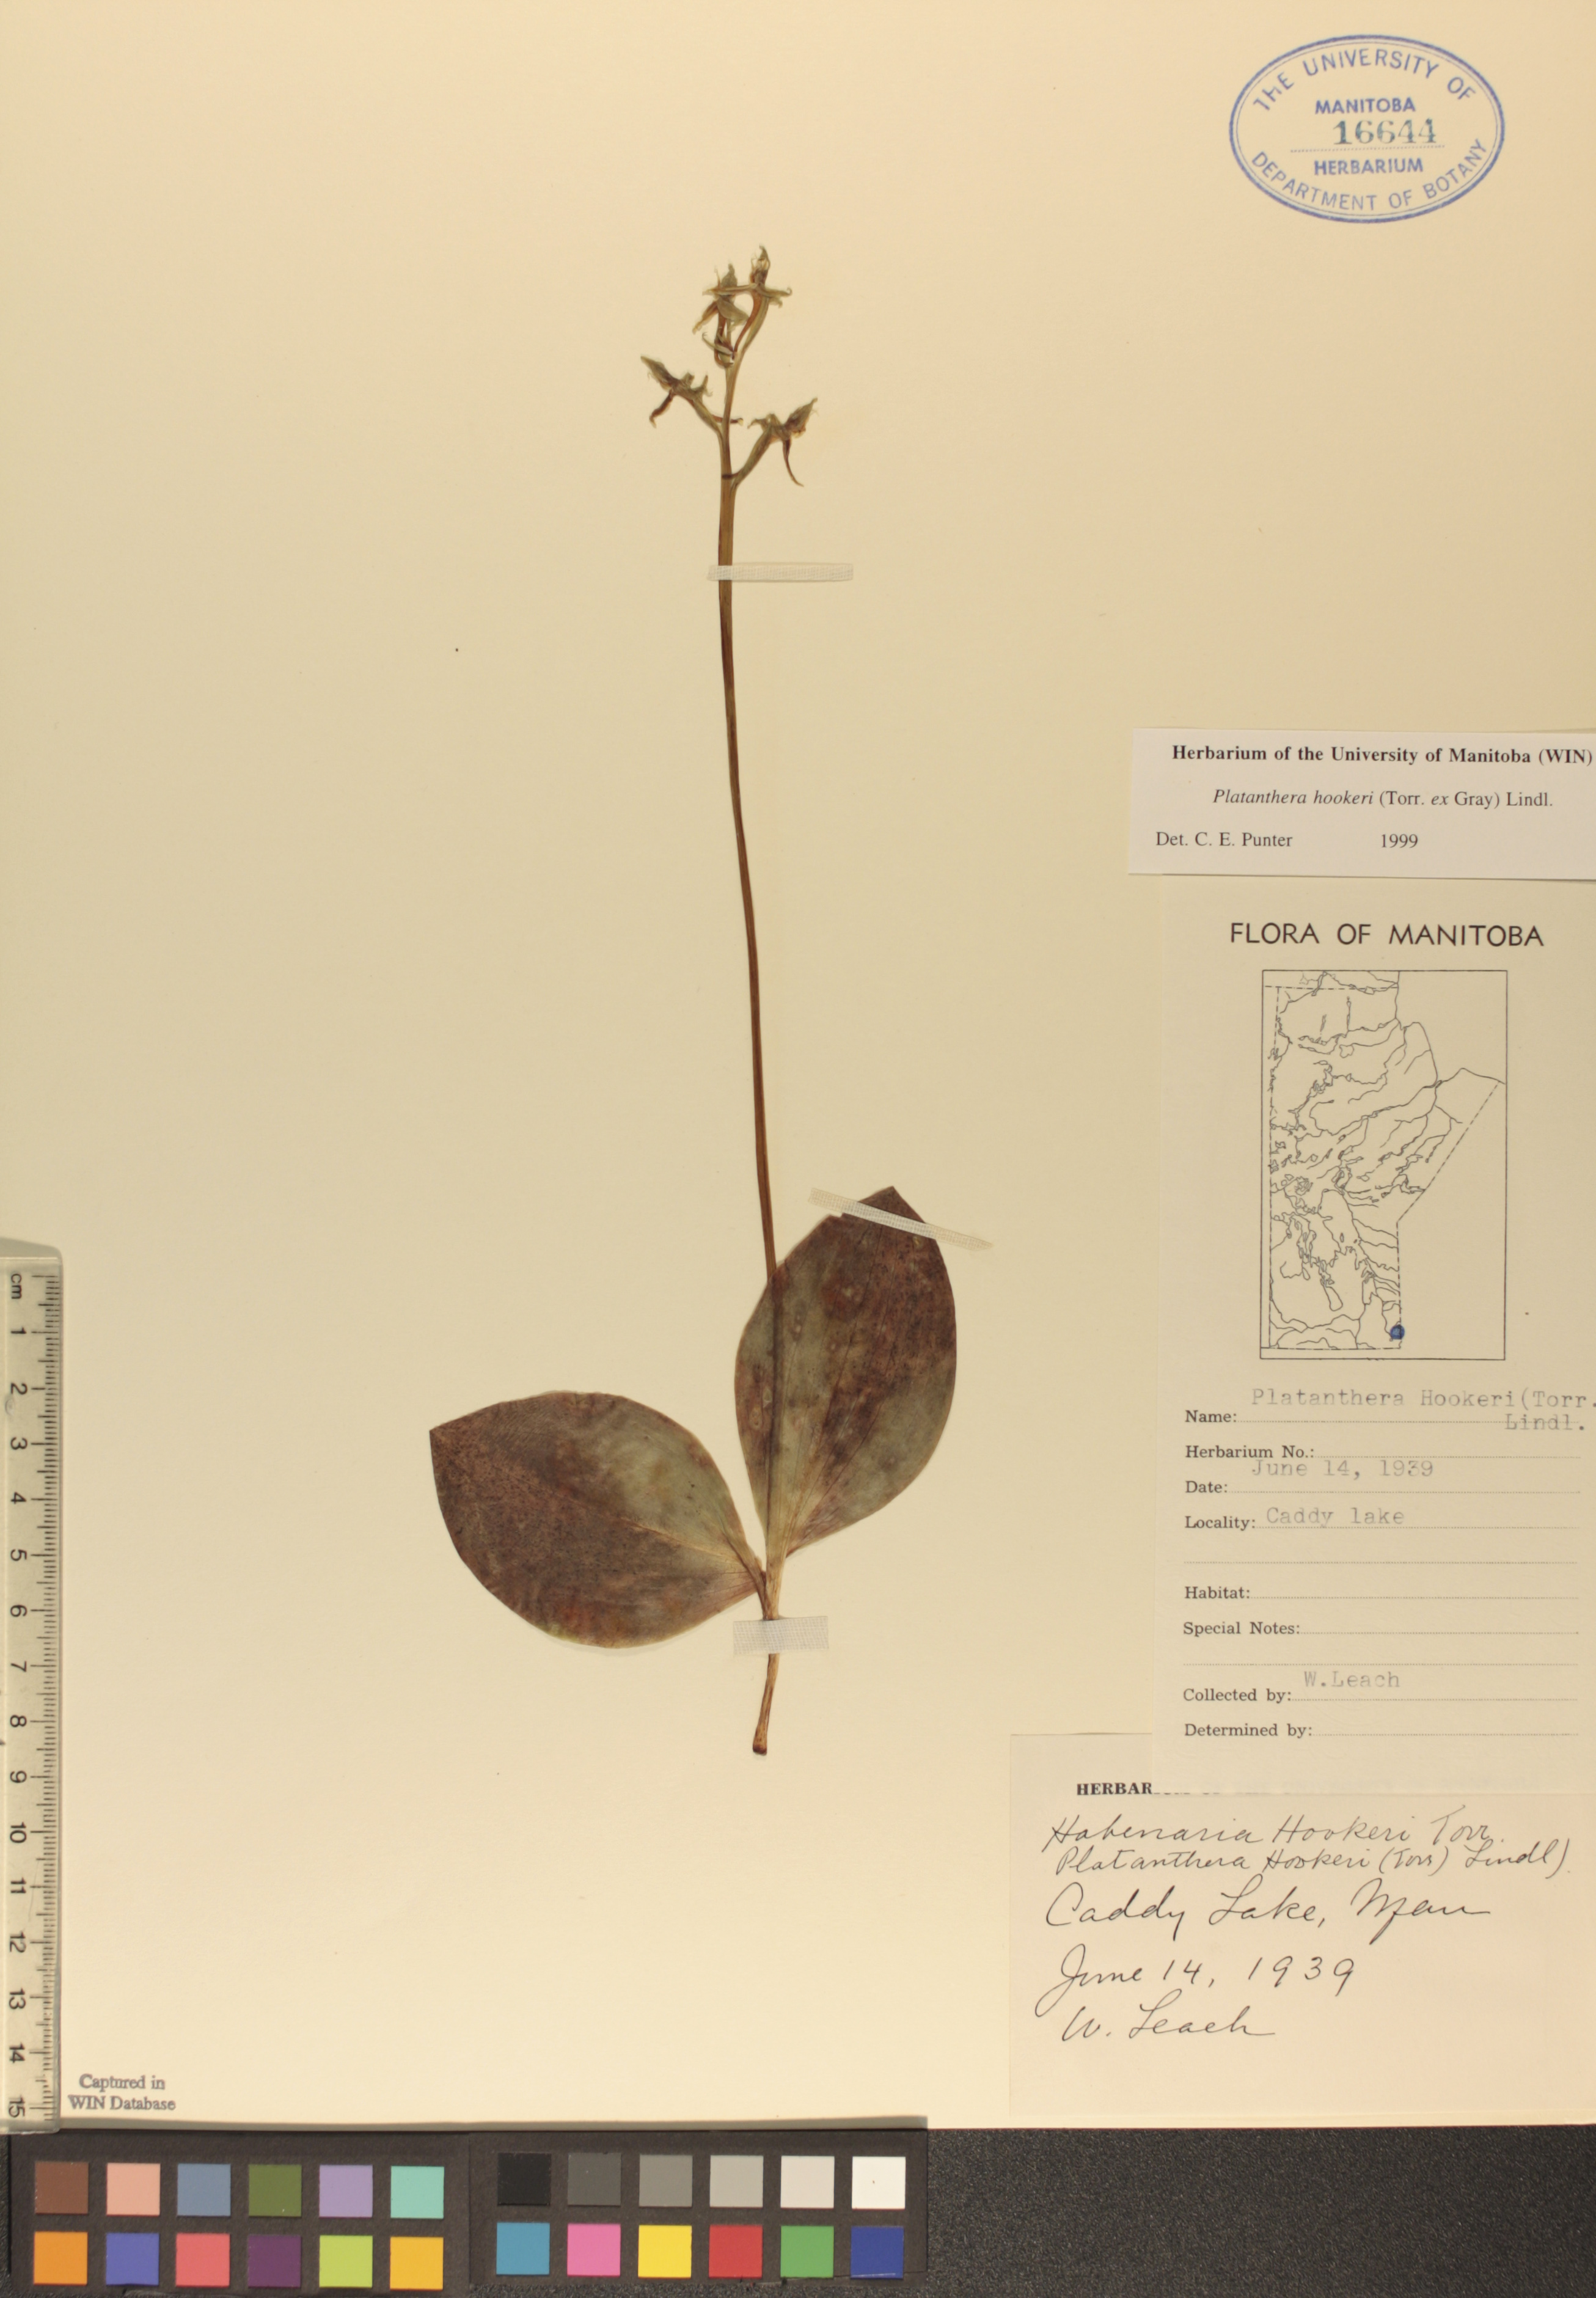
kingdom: Plantae
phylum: Tracheophyta
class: Liliopsida
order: Asparagales
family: Orchidaceae
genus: Platanthera
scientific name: Platanthera hookeri
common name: Hooker's orchid
